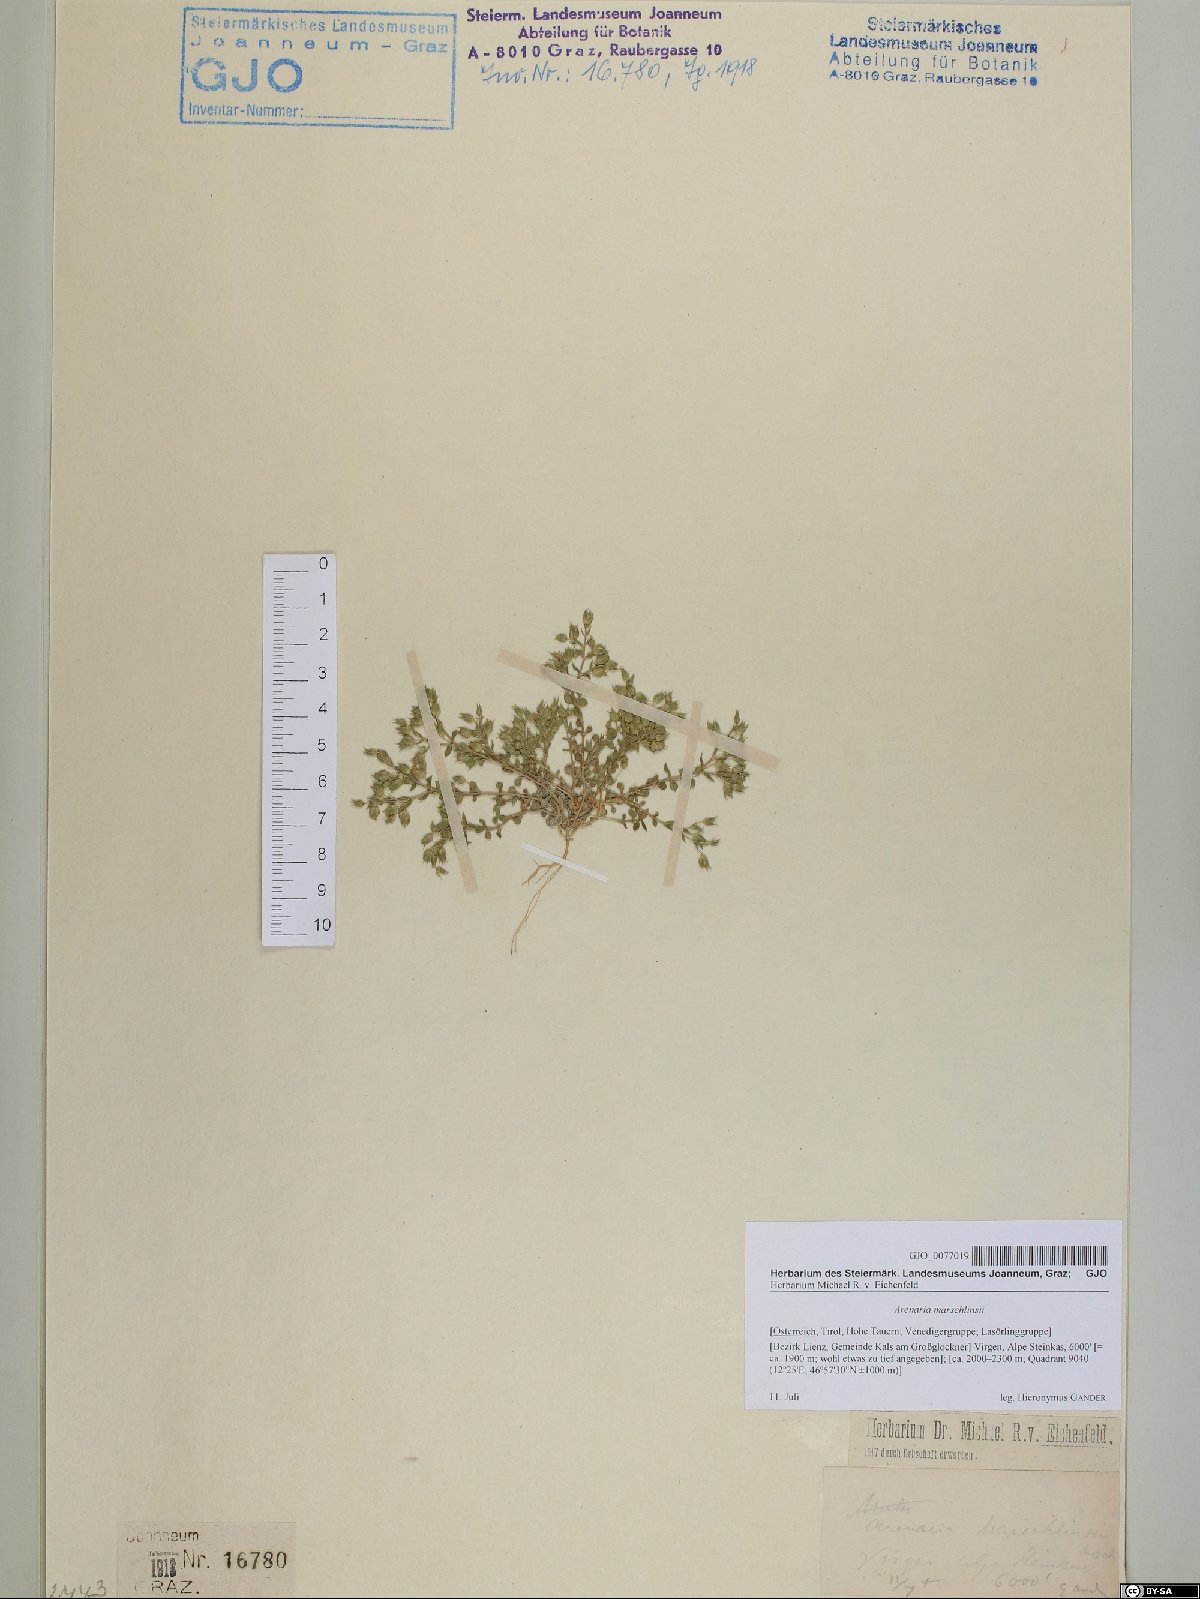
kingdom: Plantae
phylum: Tracheophyta
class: Magnoliopsida
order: Caryophyllales
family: Caryophyllaceae
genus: Arenaria
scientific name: Arenaria marschlinsii
